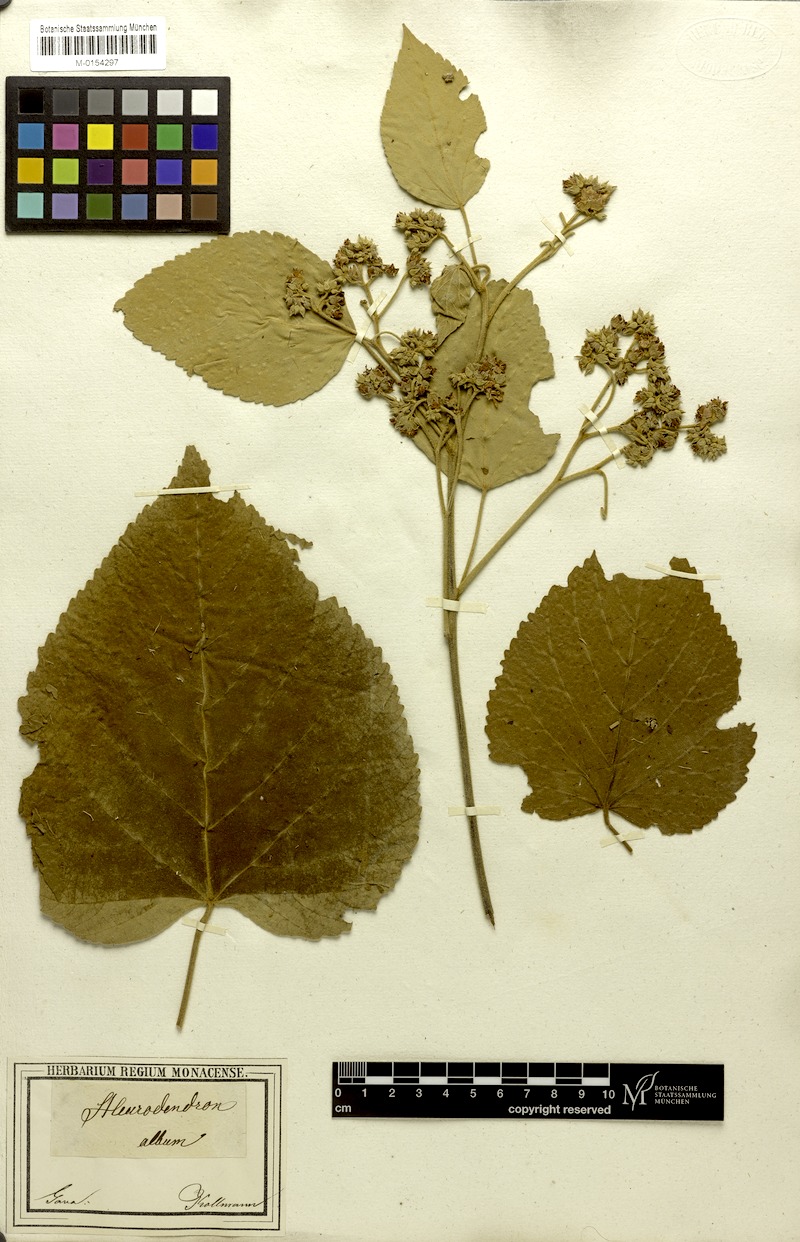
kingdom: Plantae
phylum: Tracheophyta
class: Magnoliopsida
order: Malvales
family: Malvaceae
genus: Melochia
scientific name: Melochia umbellata
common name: Gunpowder tree
